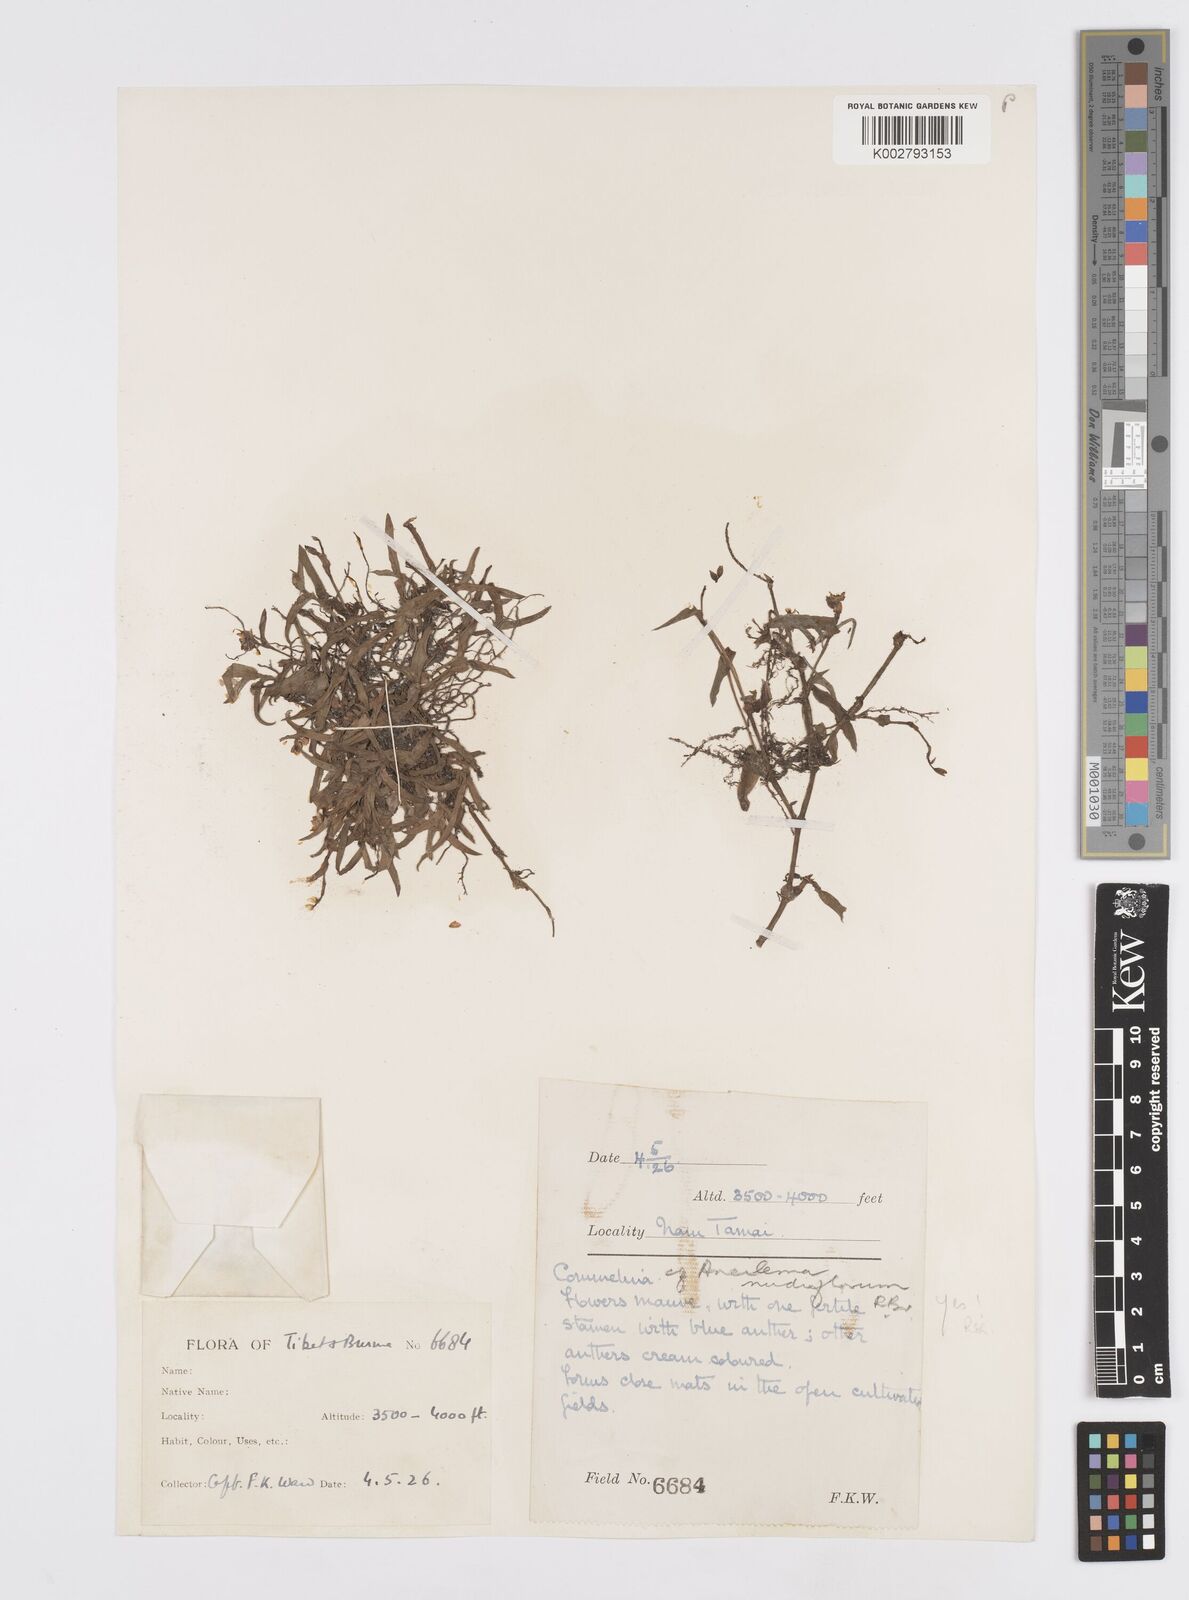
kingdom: Plantae
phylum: Tracheophyta
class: Liliopsida
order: Commelinales
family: Commelinaceae
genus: Murdannia
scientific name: Murdannia
